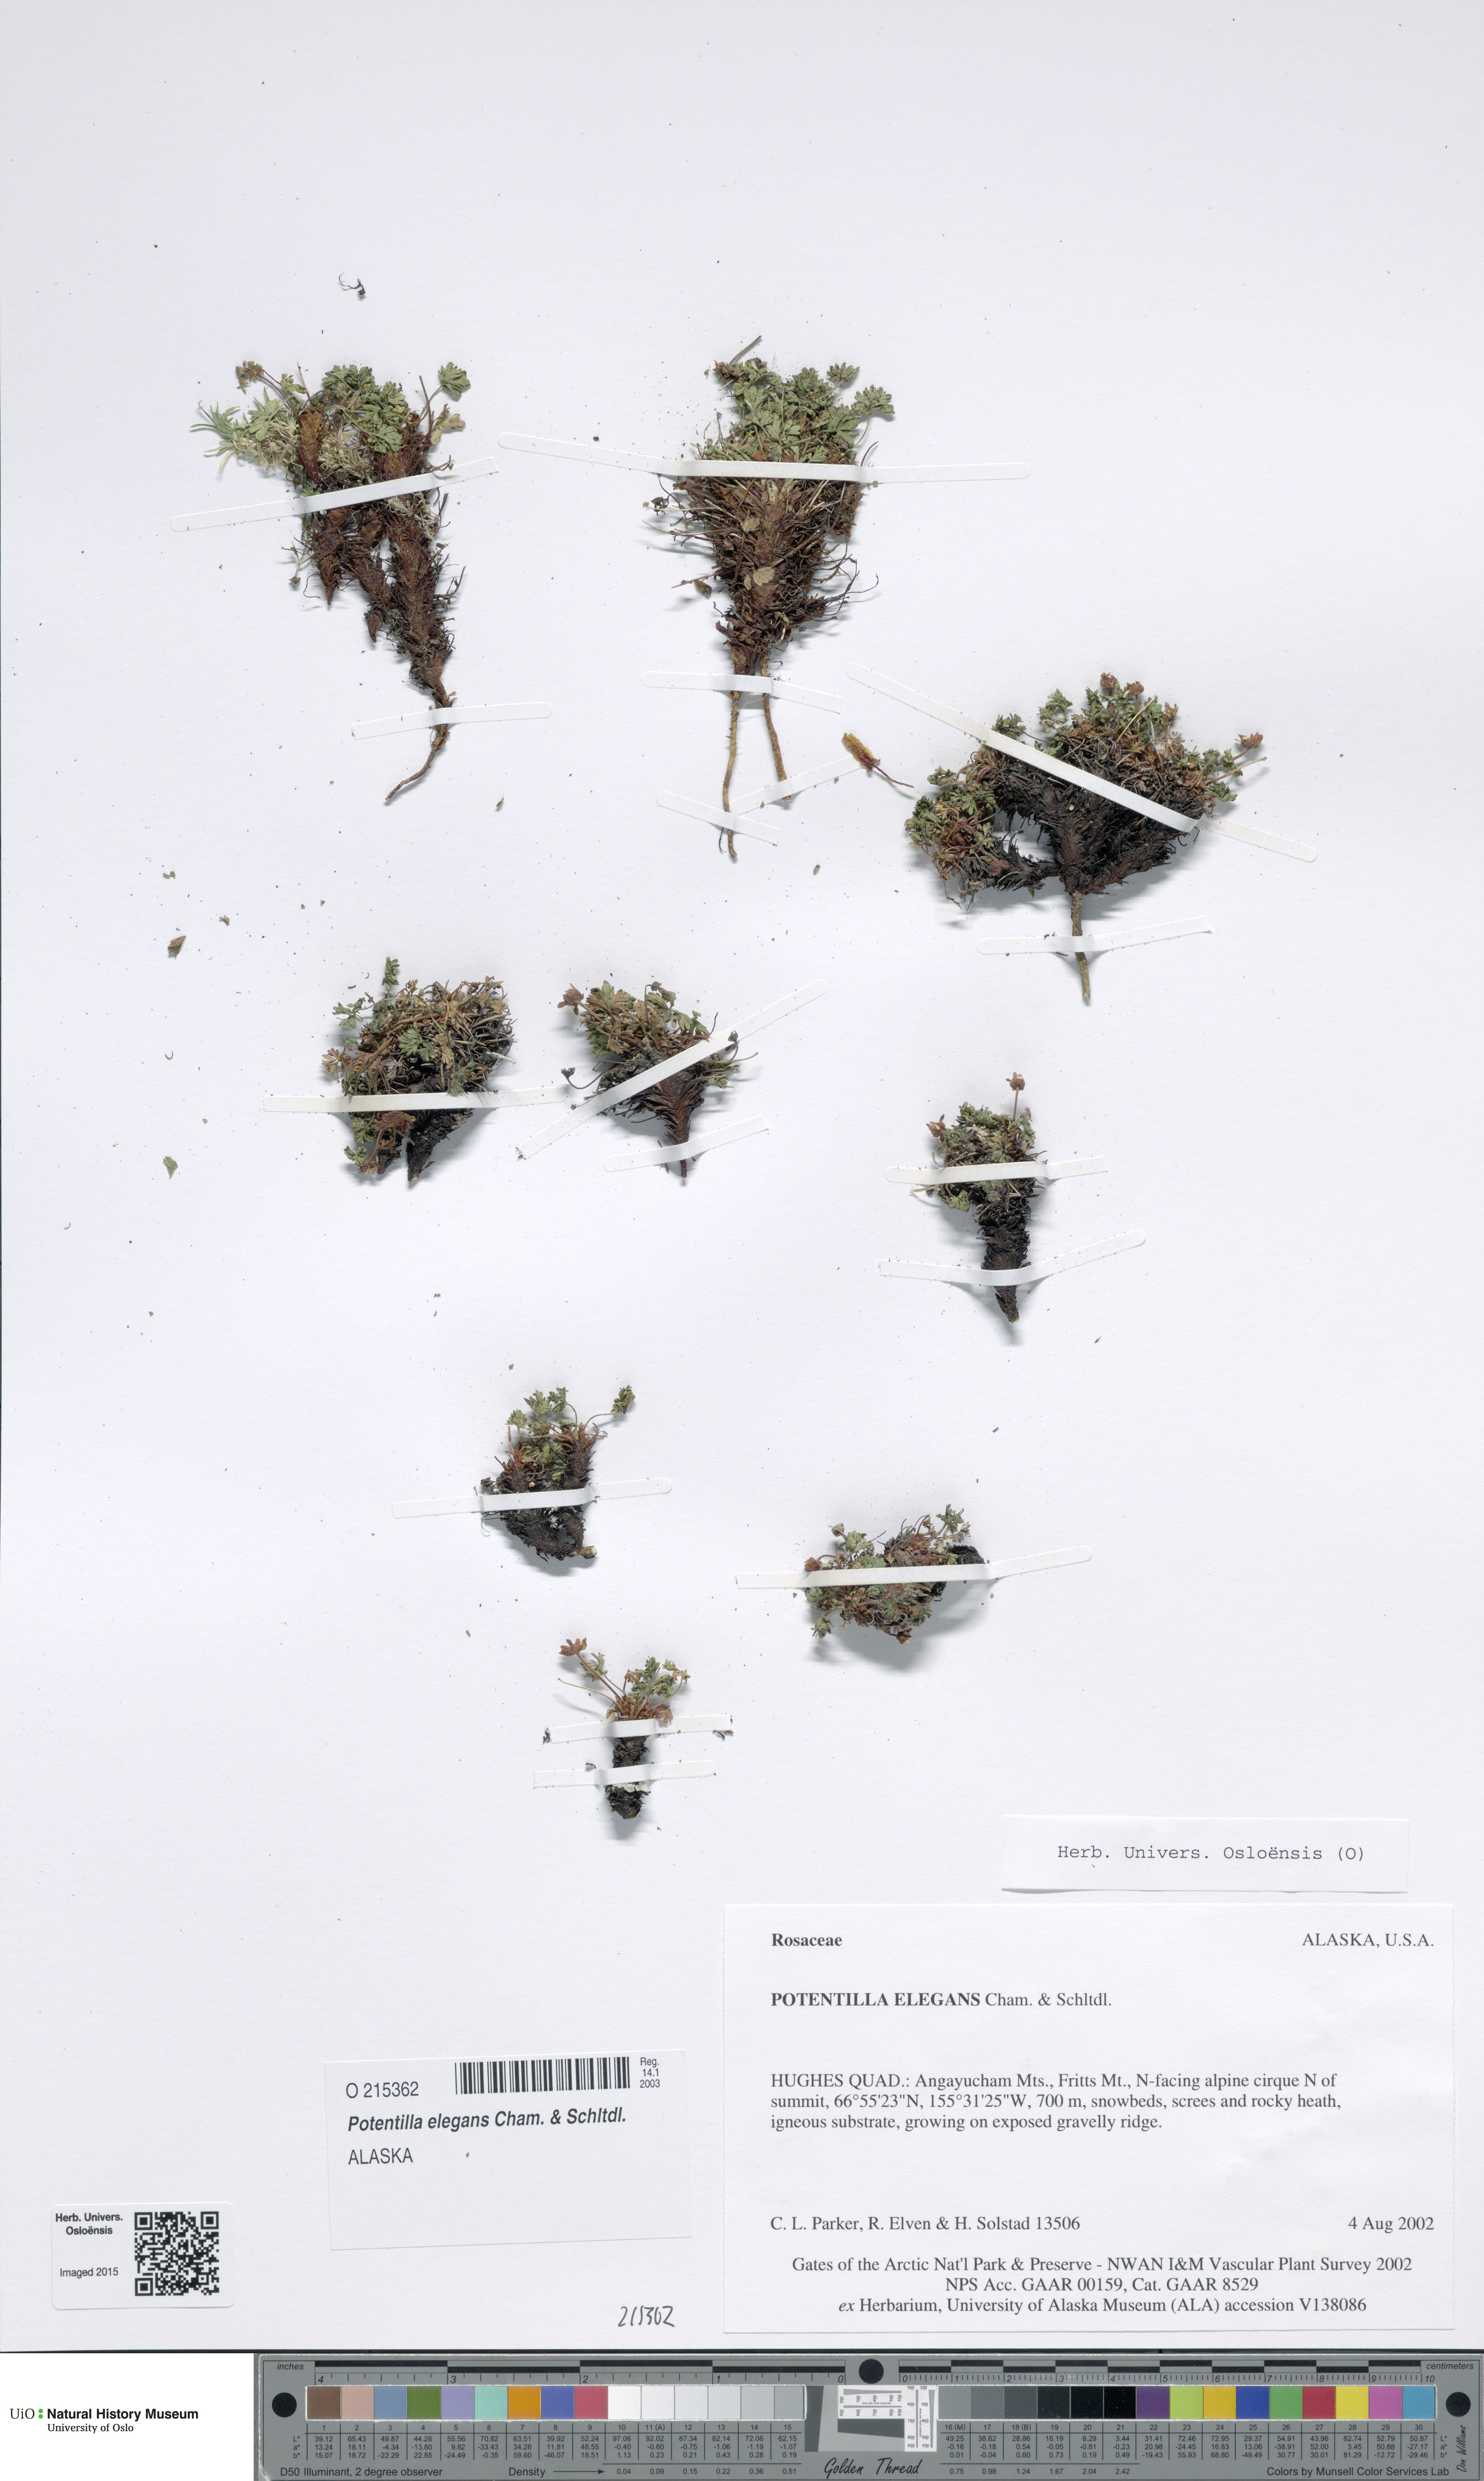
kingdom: Plantae
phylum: Tracheophyta
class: Magnoliopsida
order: Rosales
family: Rosaceae
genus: Potentilla
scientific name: Potentilla elegans
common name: Elegant cinquefoil
